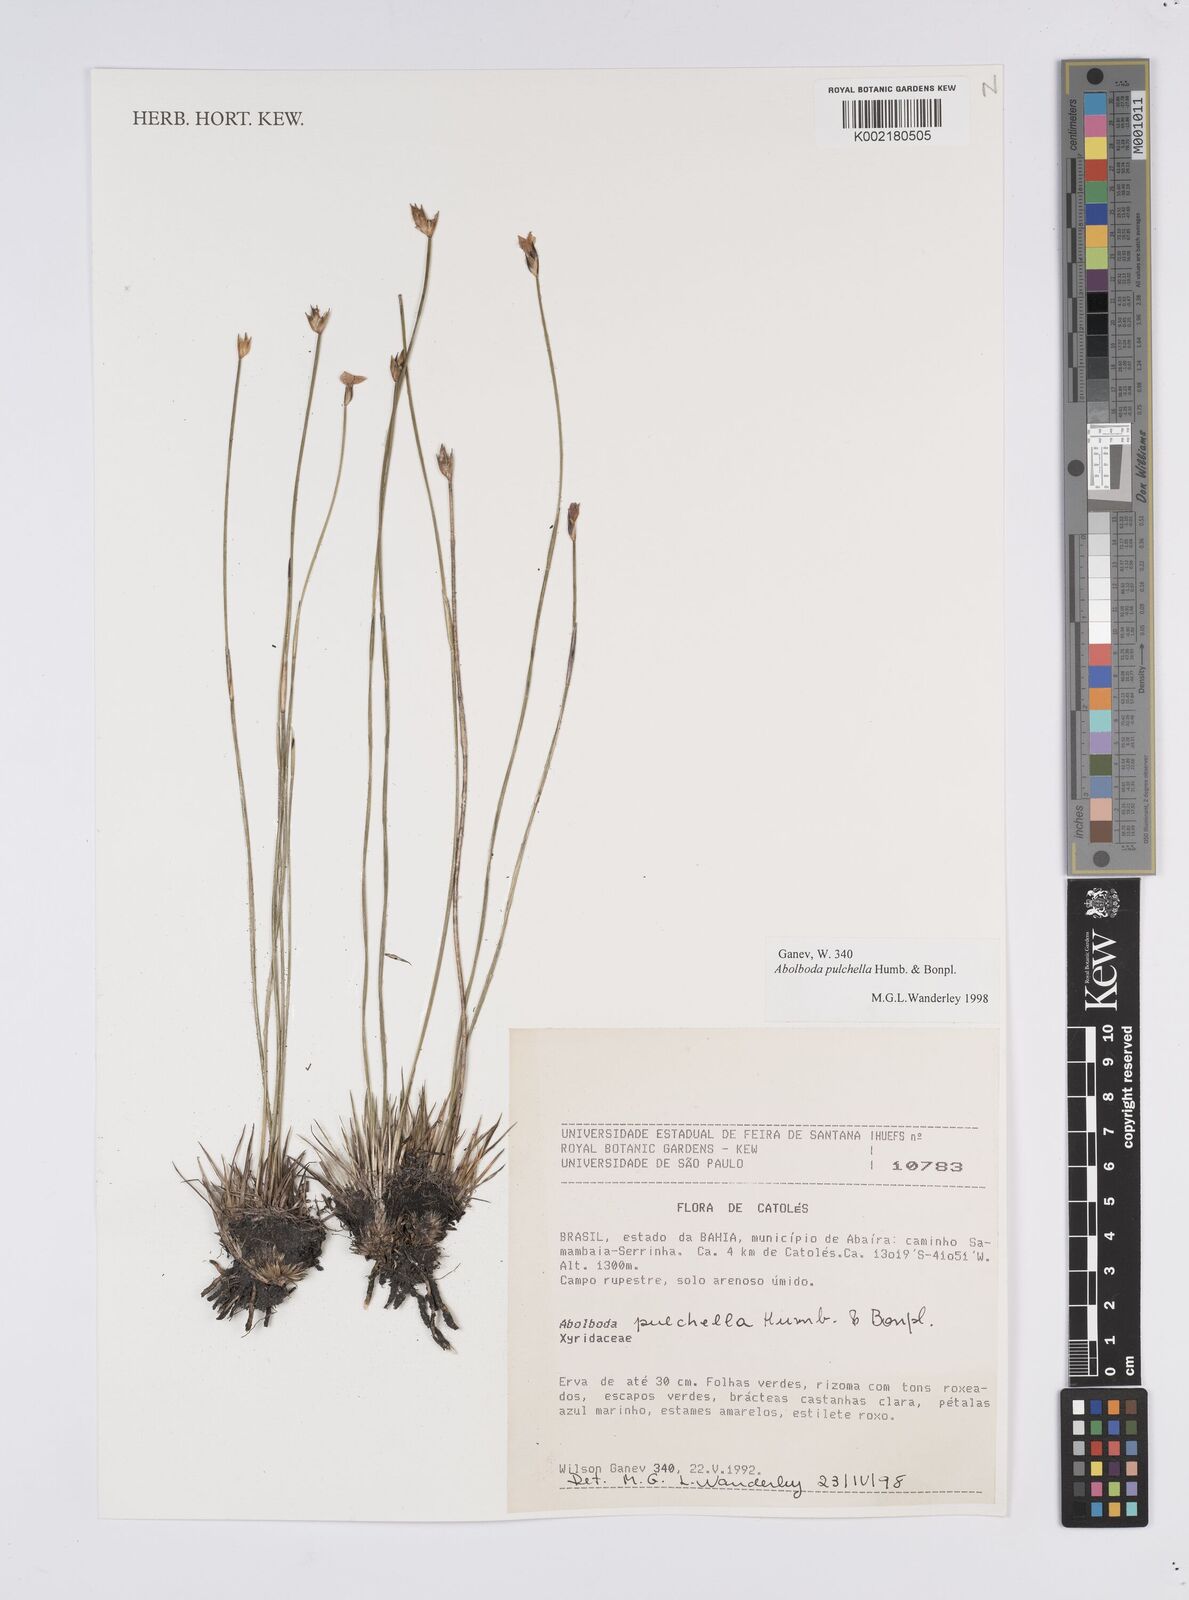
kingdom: Plantae
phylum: Tracheophyta
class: Liliopsida
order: Poales
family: Xyridaceae
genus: Abolboda
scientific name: Abolboda pulchella
